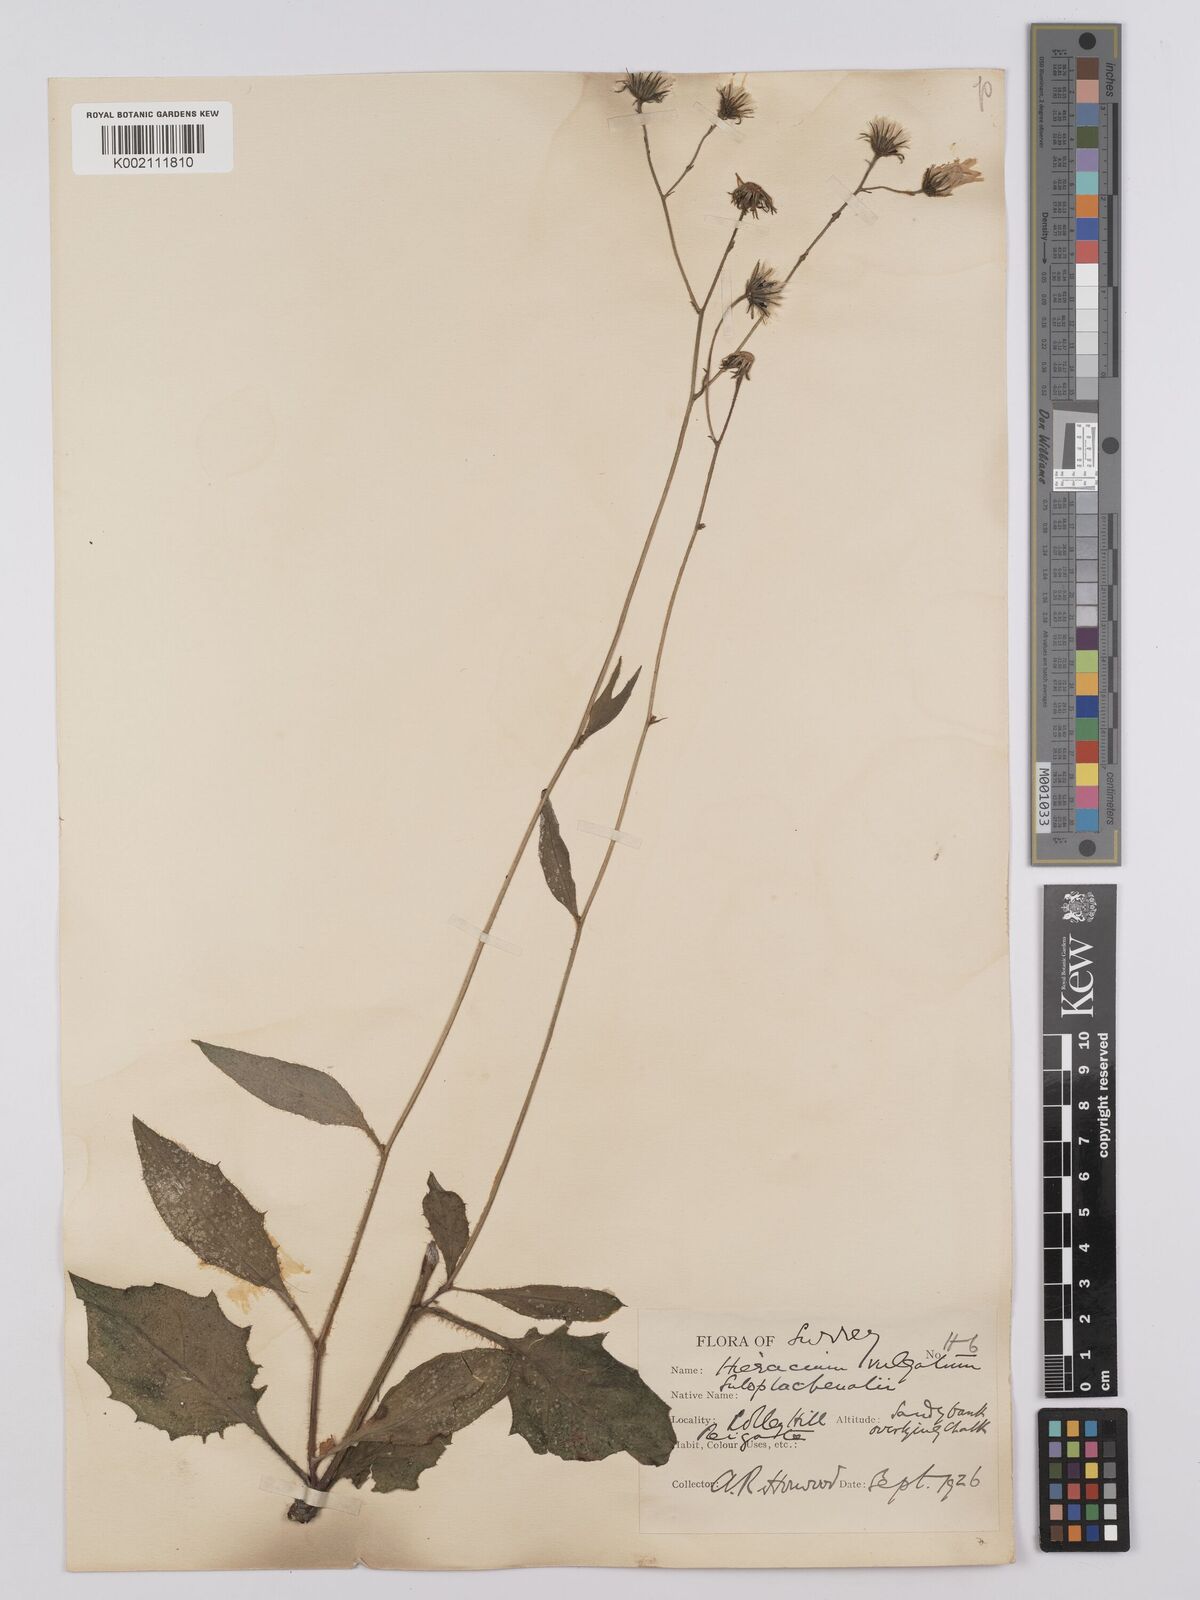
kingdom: Plantae
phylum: Tracheophyta
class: Magnoliopsida
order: Asterales
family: Asteraceae
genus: Hieracium
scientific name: Hieracium lachenalii
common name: Common hawkweed
